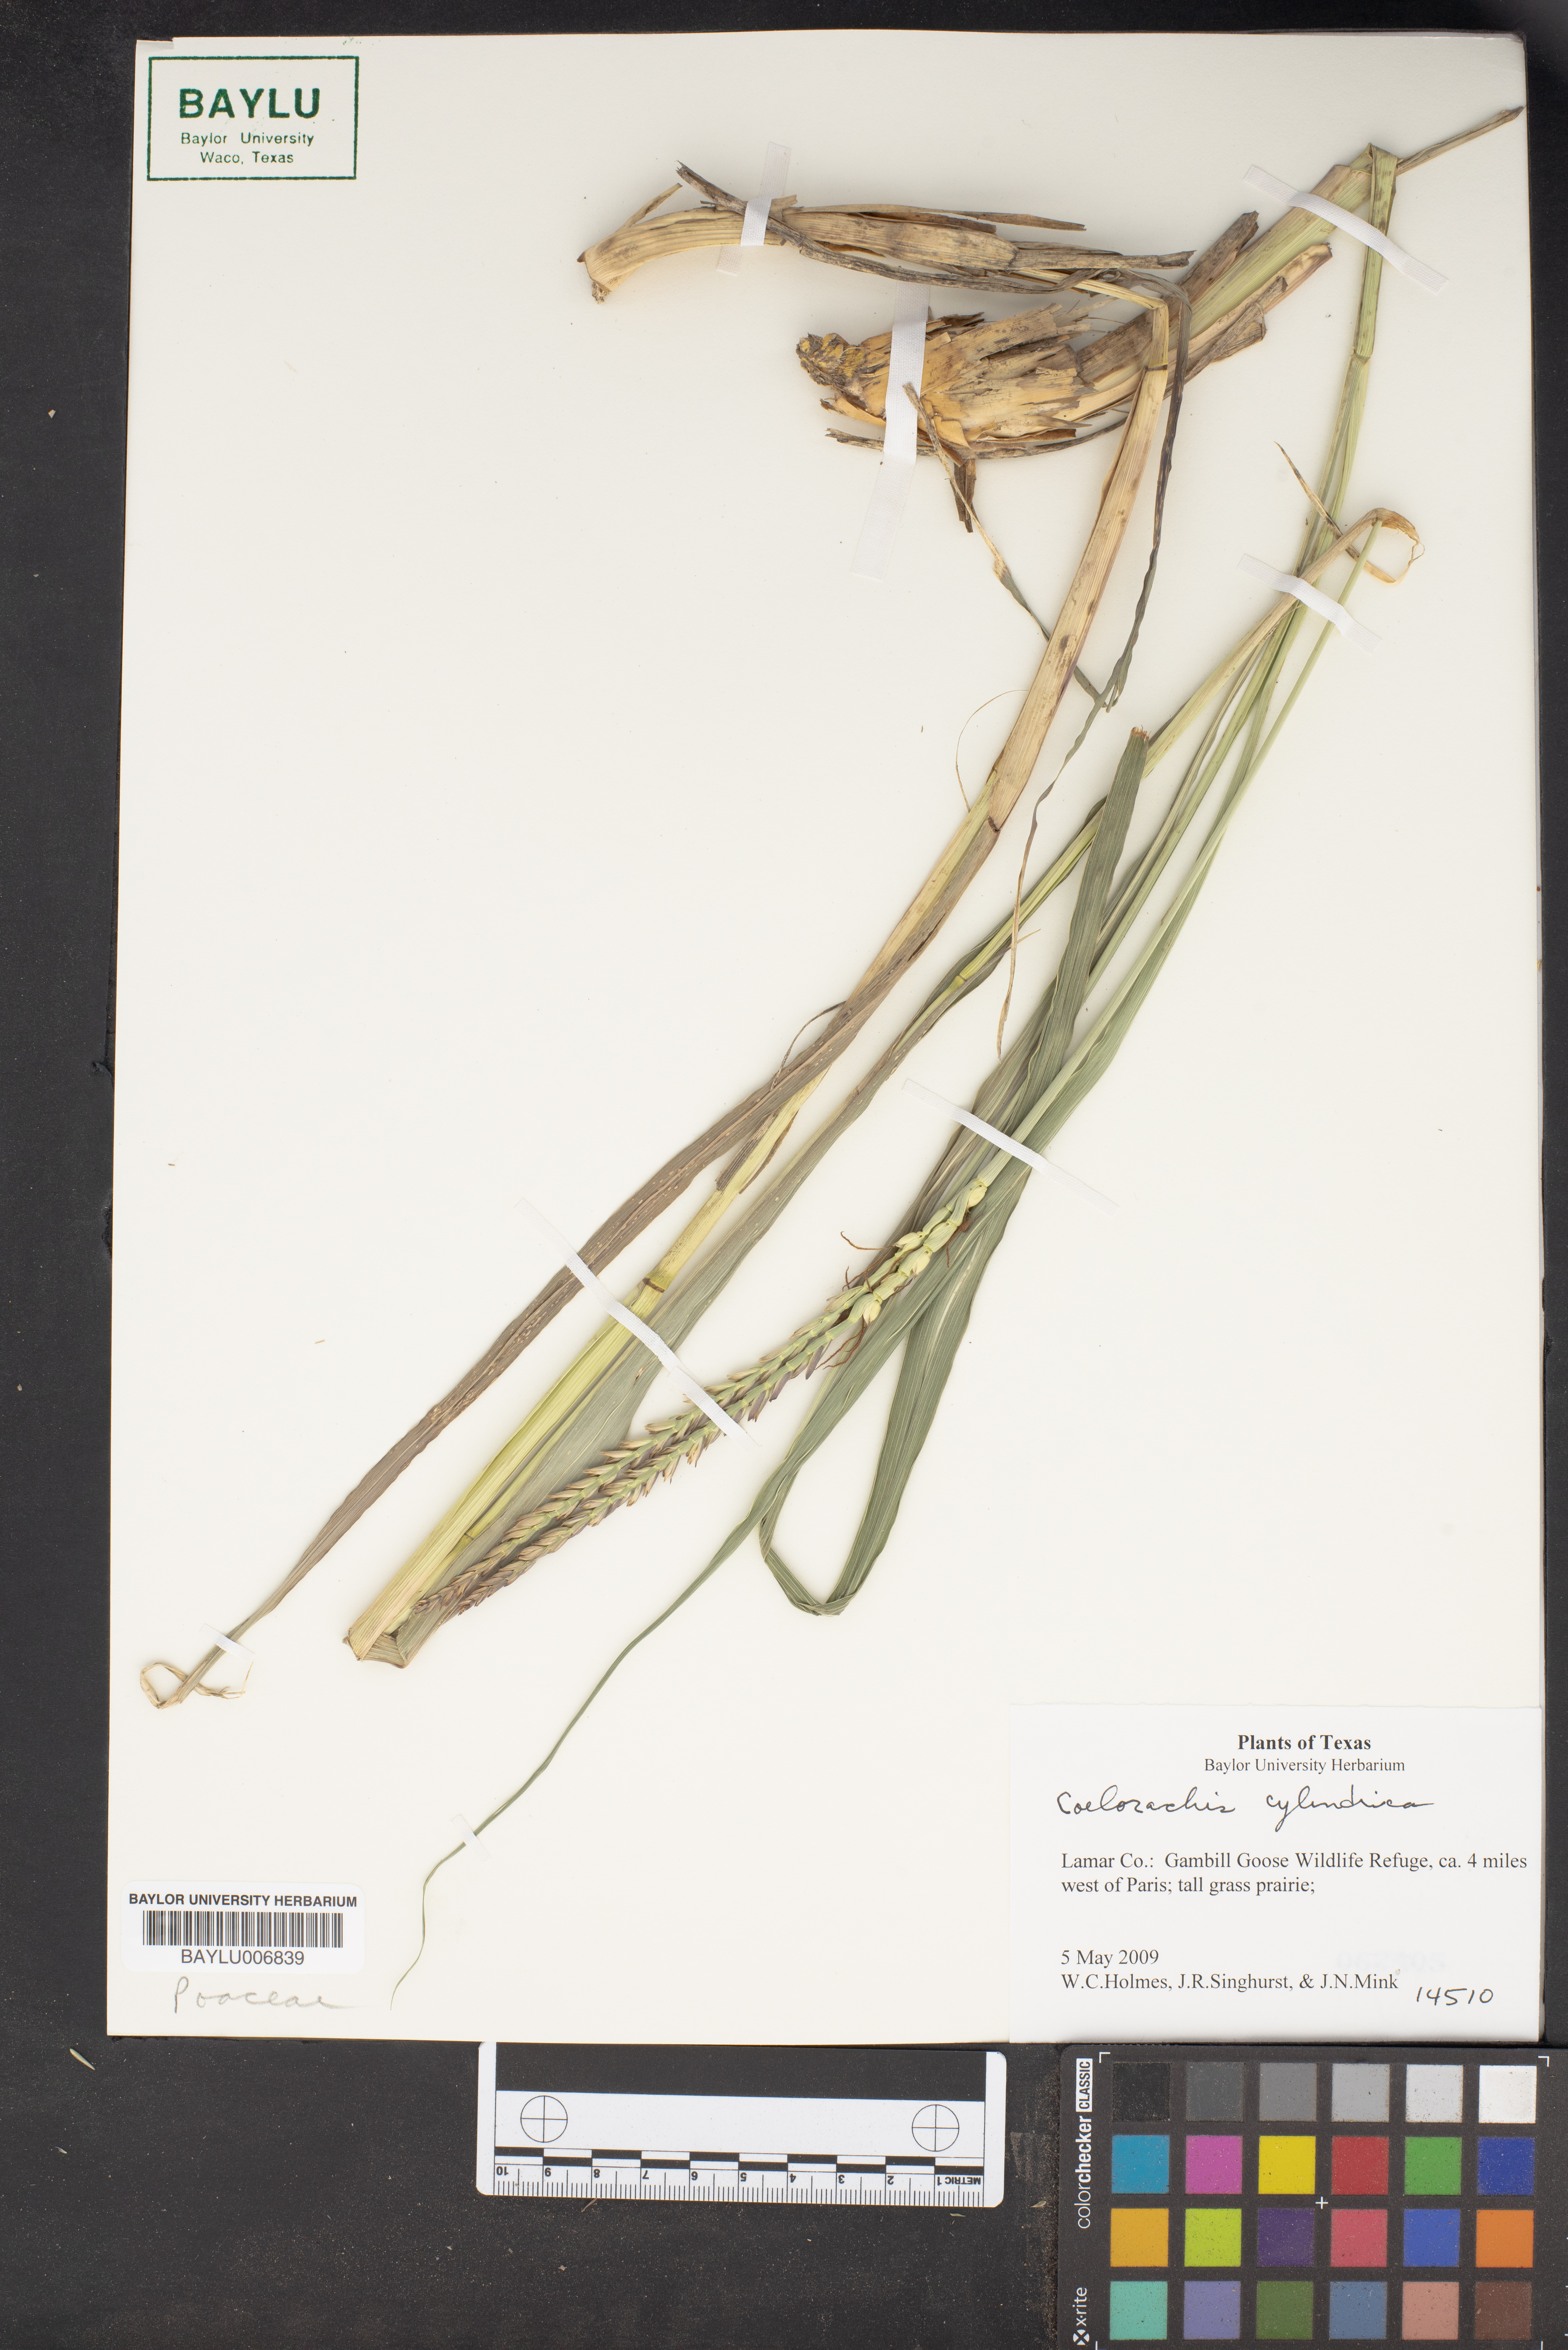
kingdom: Plantae
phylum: Tracheophyta
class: Liliopsida
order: Poales
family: Poaceae
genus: Rottboellia
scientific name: Rottboellia campestris
